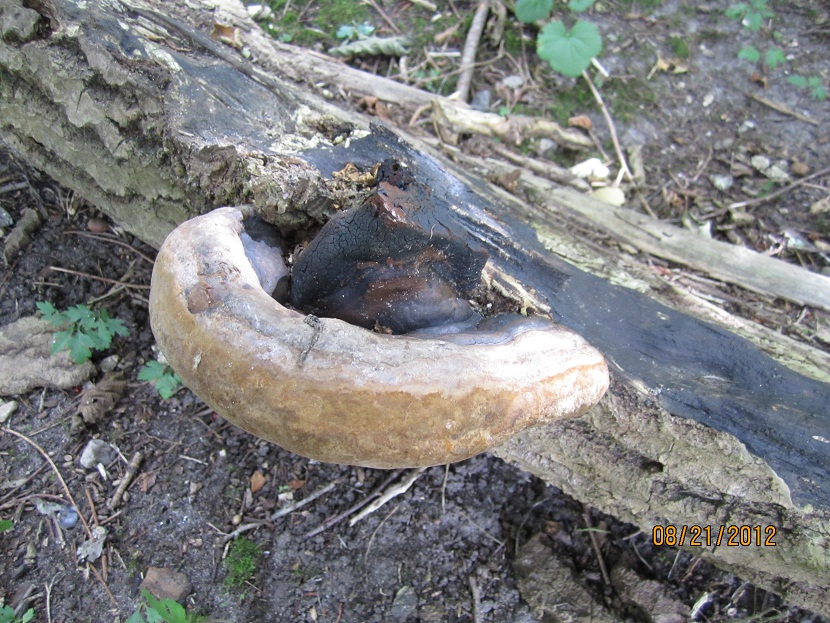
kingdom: Fungi
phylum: Basidiomycota
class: Agaricomycetes
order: Hymenochaetales
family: Hymenochaetaceae
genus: Phellinus
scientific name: Phellinus populicola
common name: poppel-ildporesvamp
